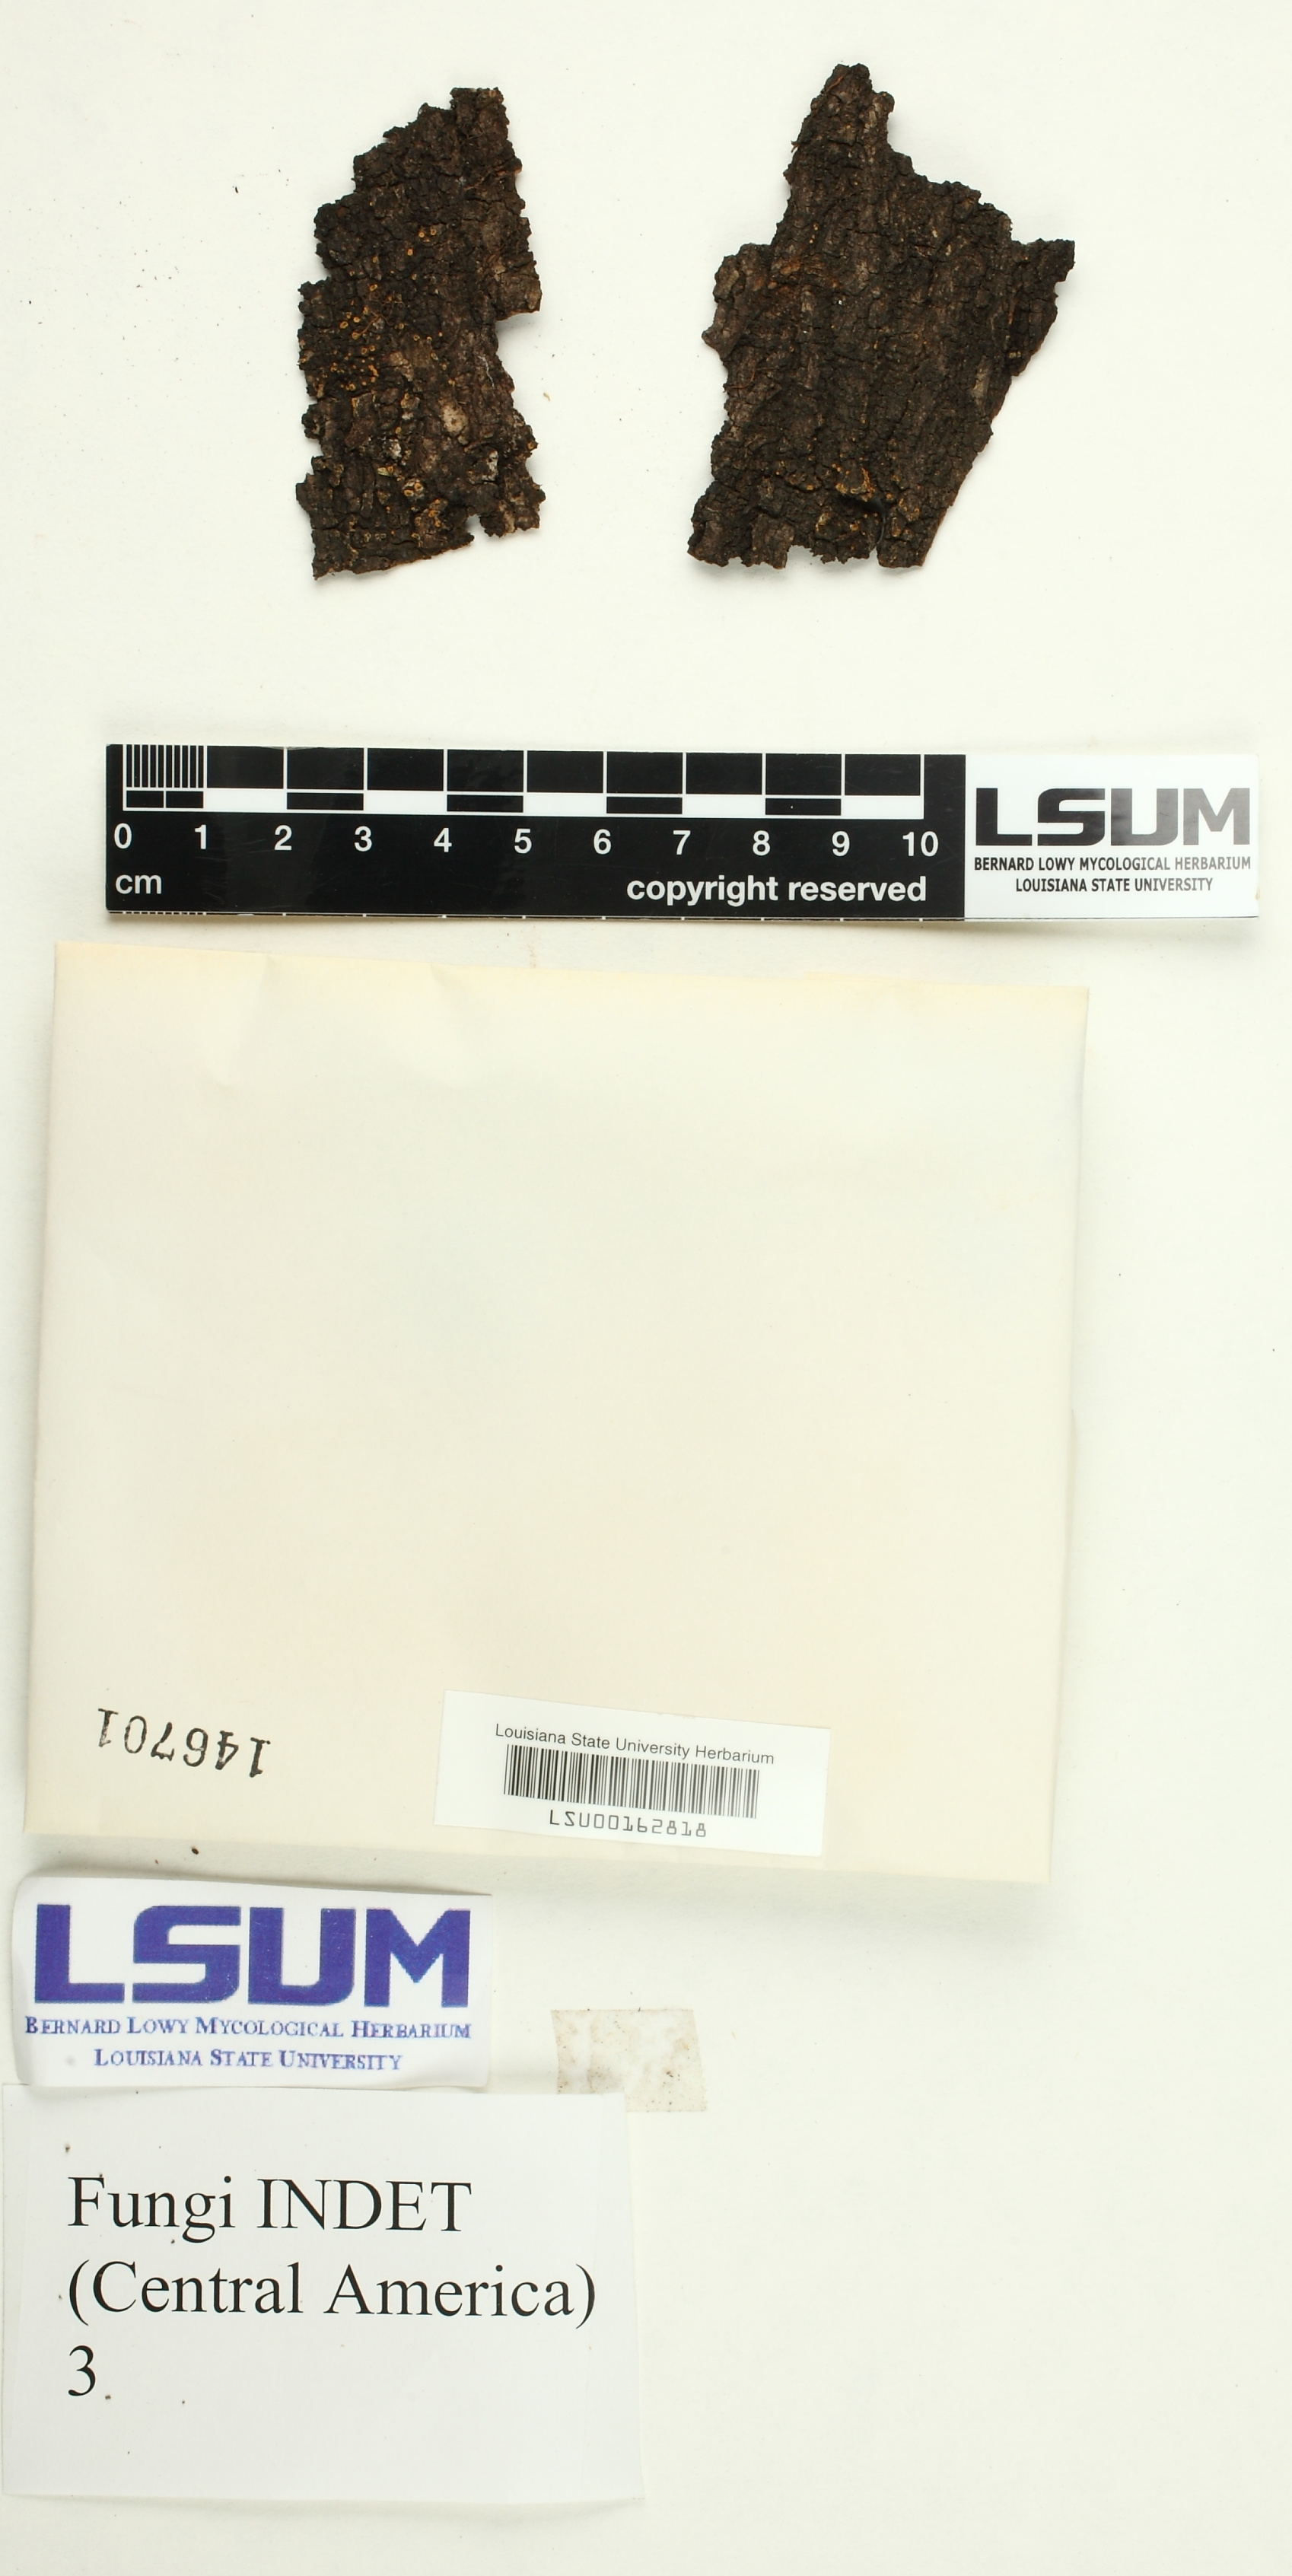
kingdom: Fungi
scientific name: Fungi
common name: Fungi
